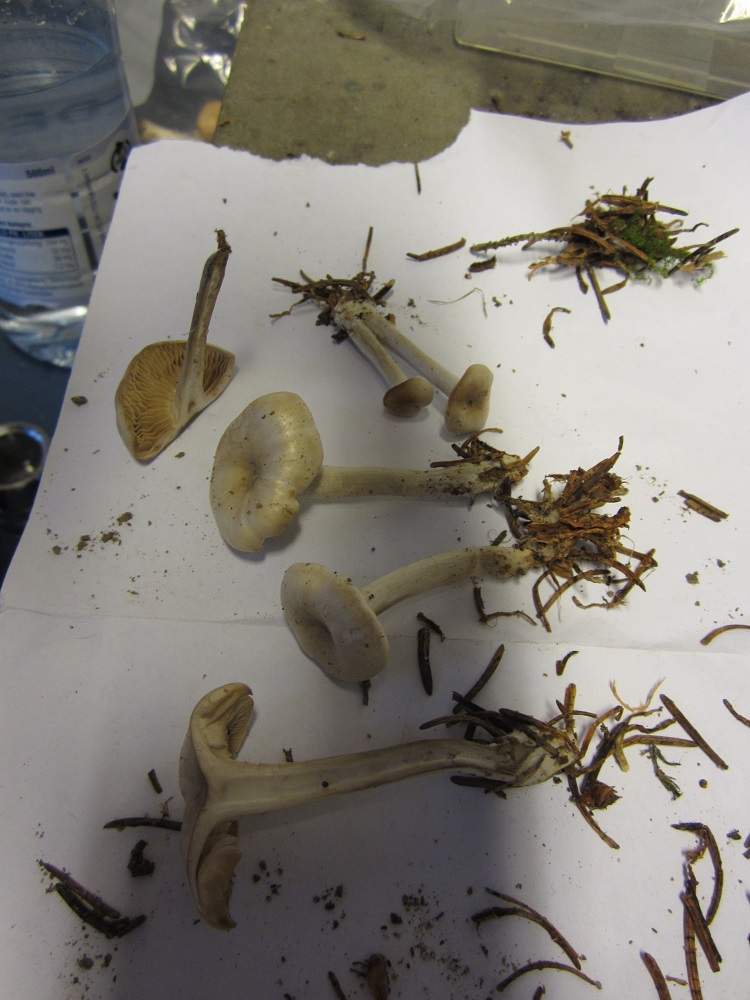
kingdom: Fungi
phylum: Basidiomycota
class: Agaricomycetes
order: Agaricales
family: Tricholomataceae
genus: Clitocybe
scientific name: Clitocybe fragrans
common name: vellugtende tragthat
